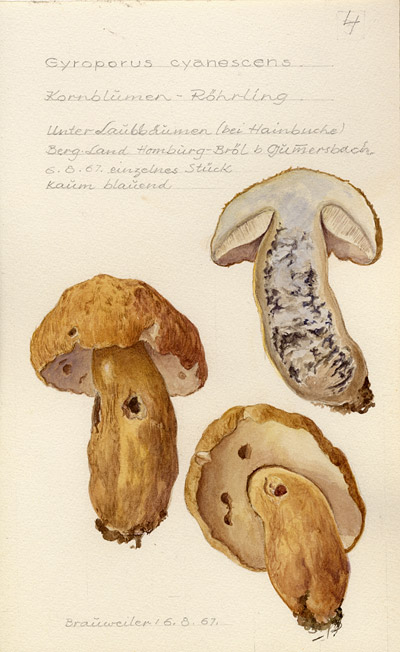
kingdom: Fungi
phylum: Basidiomycota
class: Agaricomycetes
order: Boletales
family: Gyroporaceae
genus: Gyroporus
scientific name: Gyroporus cyanescens
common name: Cornflower bolete
